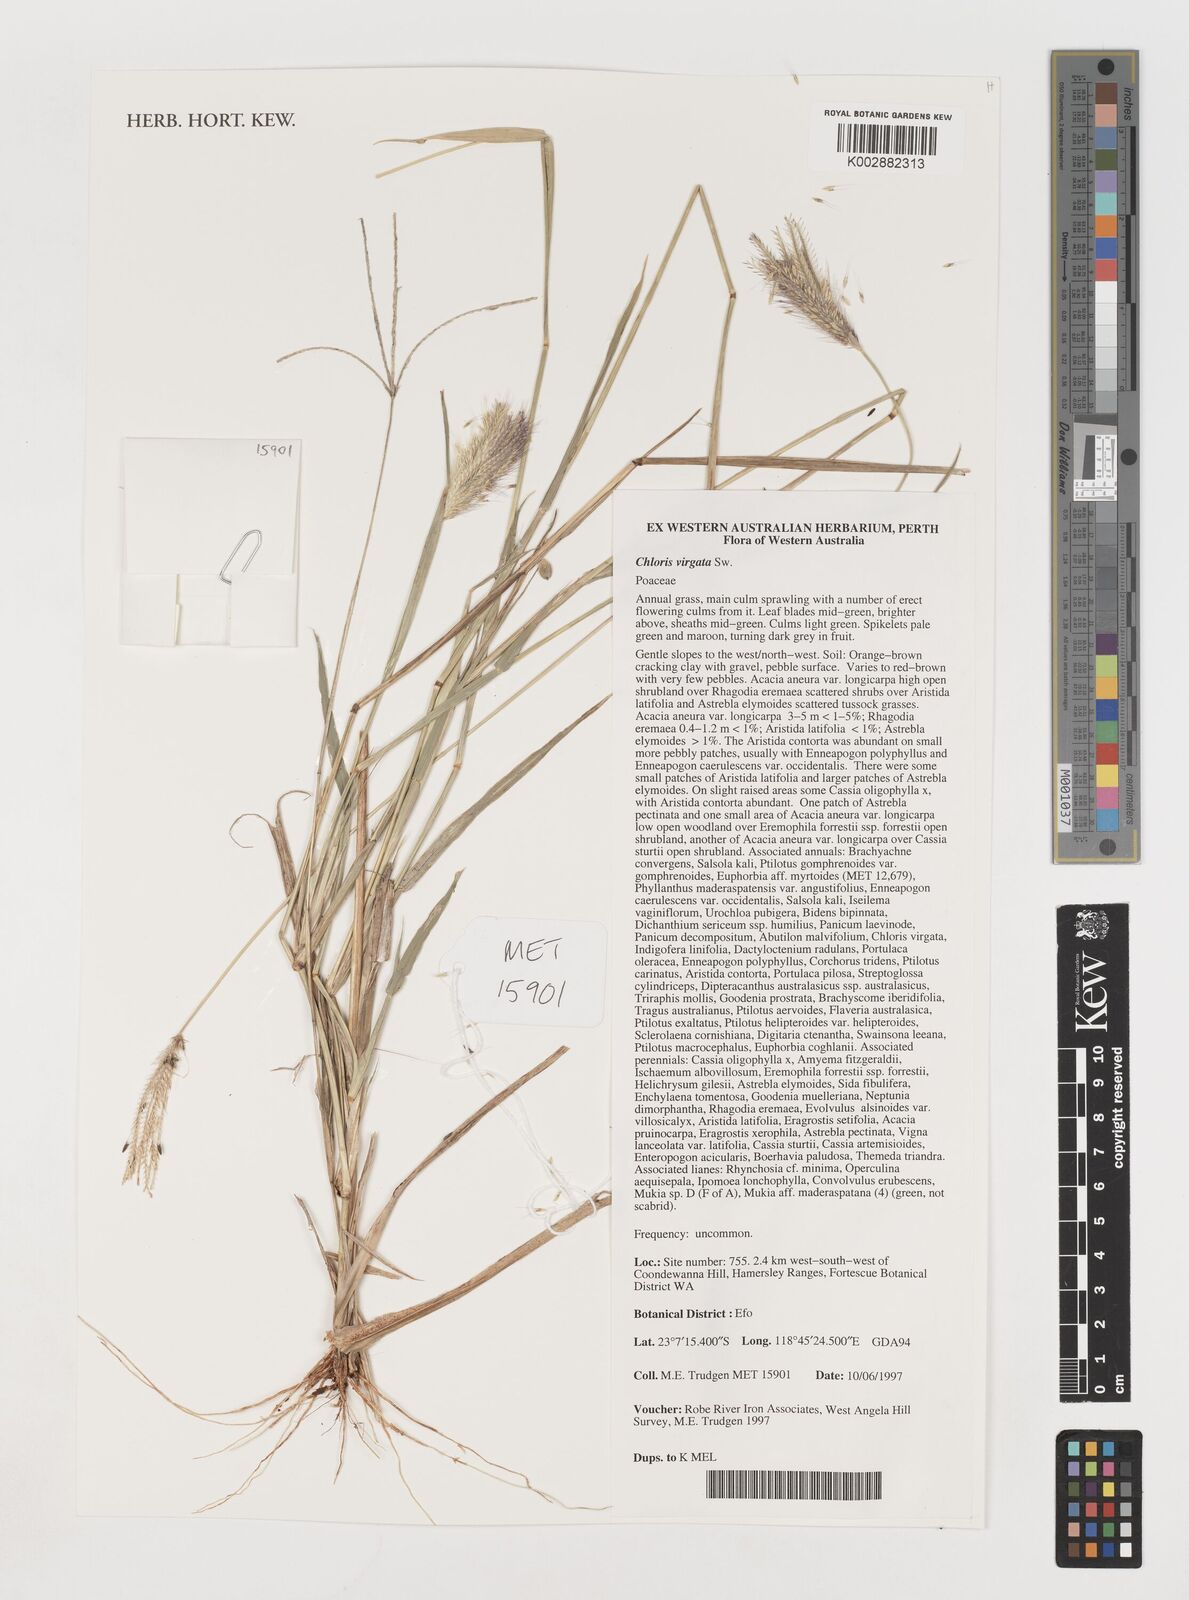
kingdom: Plantae
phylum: Tracheophyta
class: Liliopsida
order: Poales
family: Poaceae
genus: Chloris
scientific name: Chloris virgata
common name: Feathery rhodes-grass
